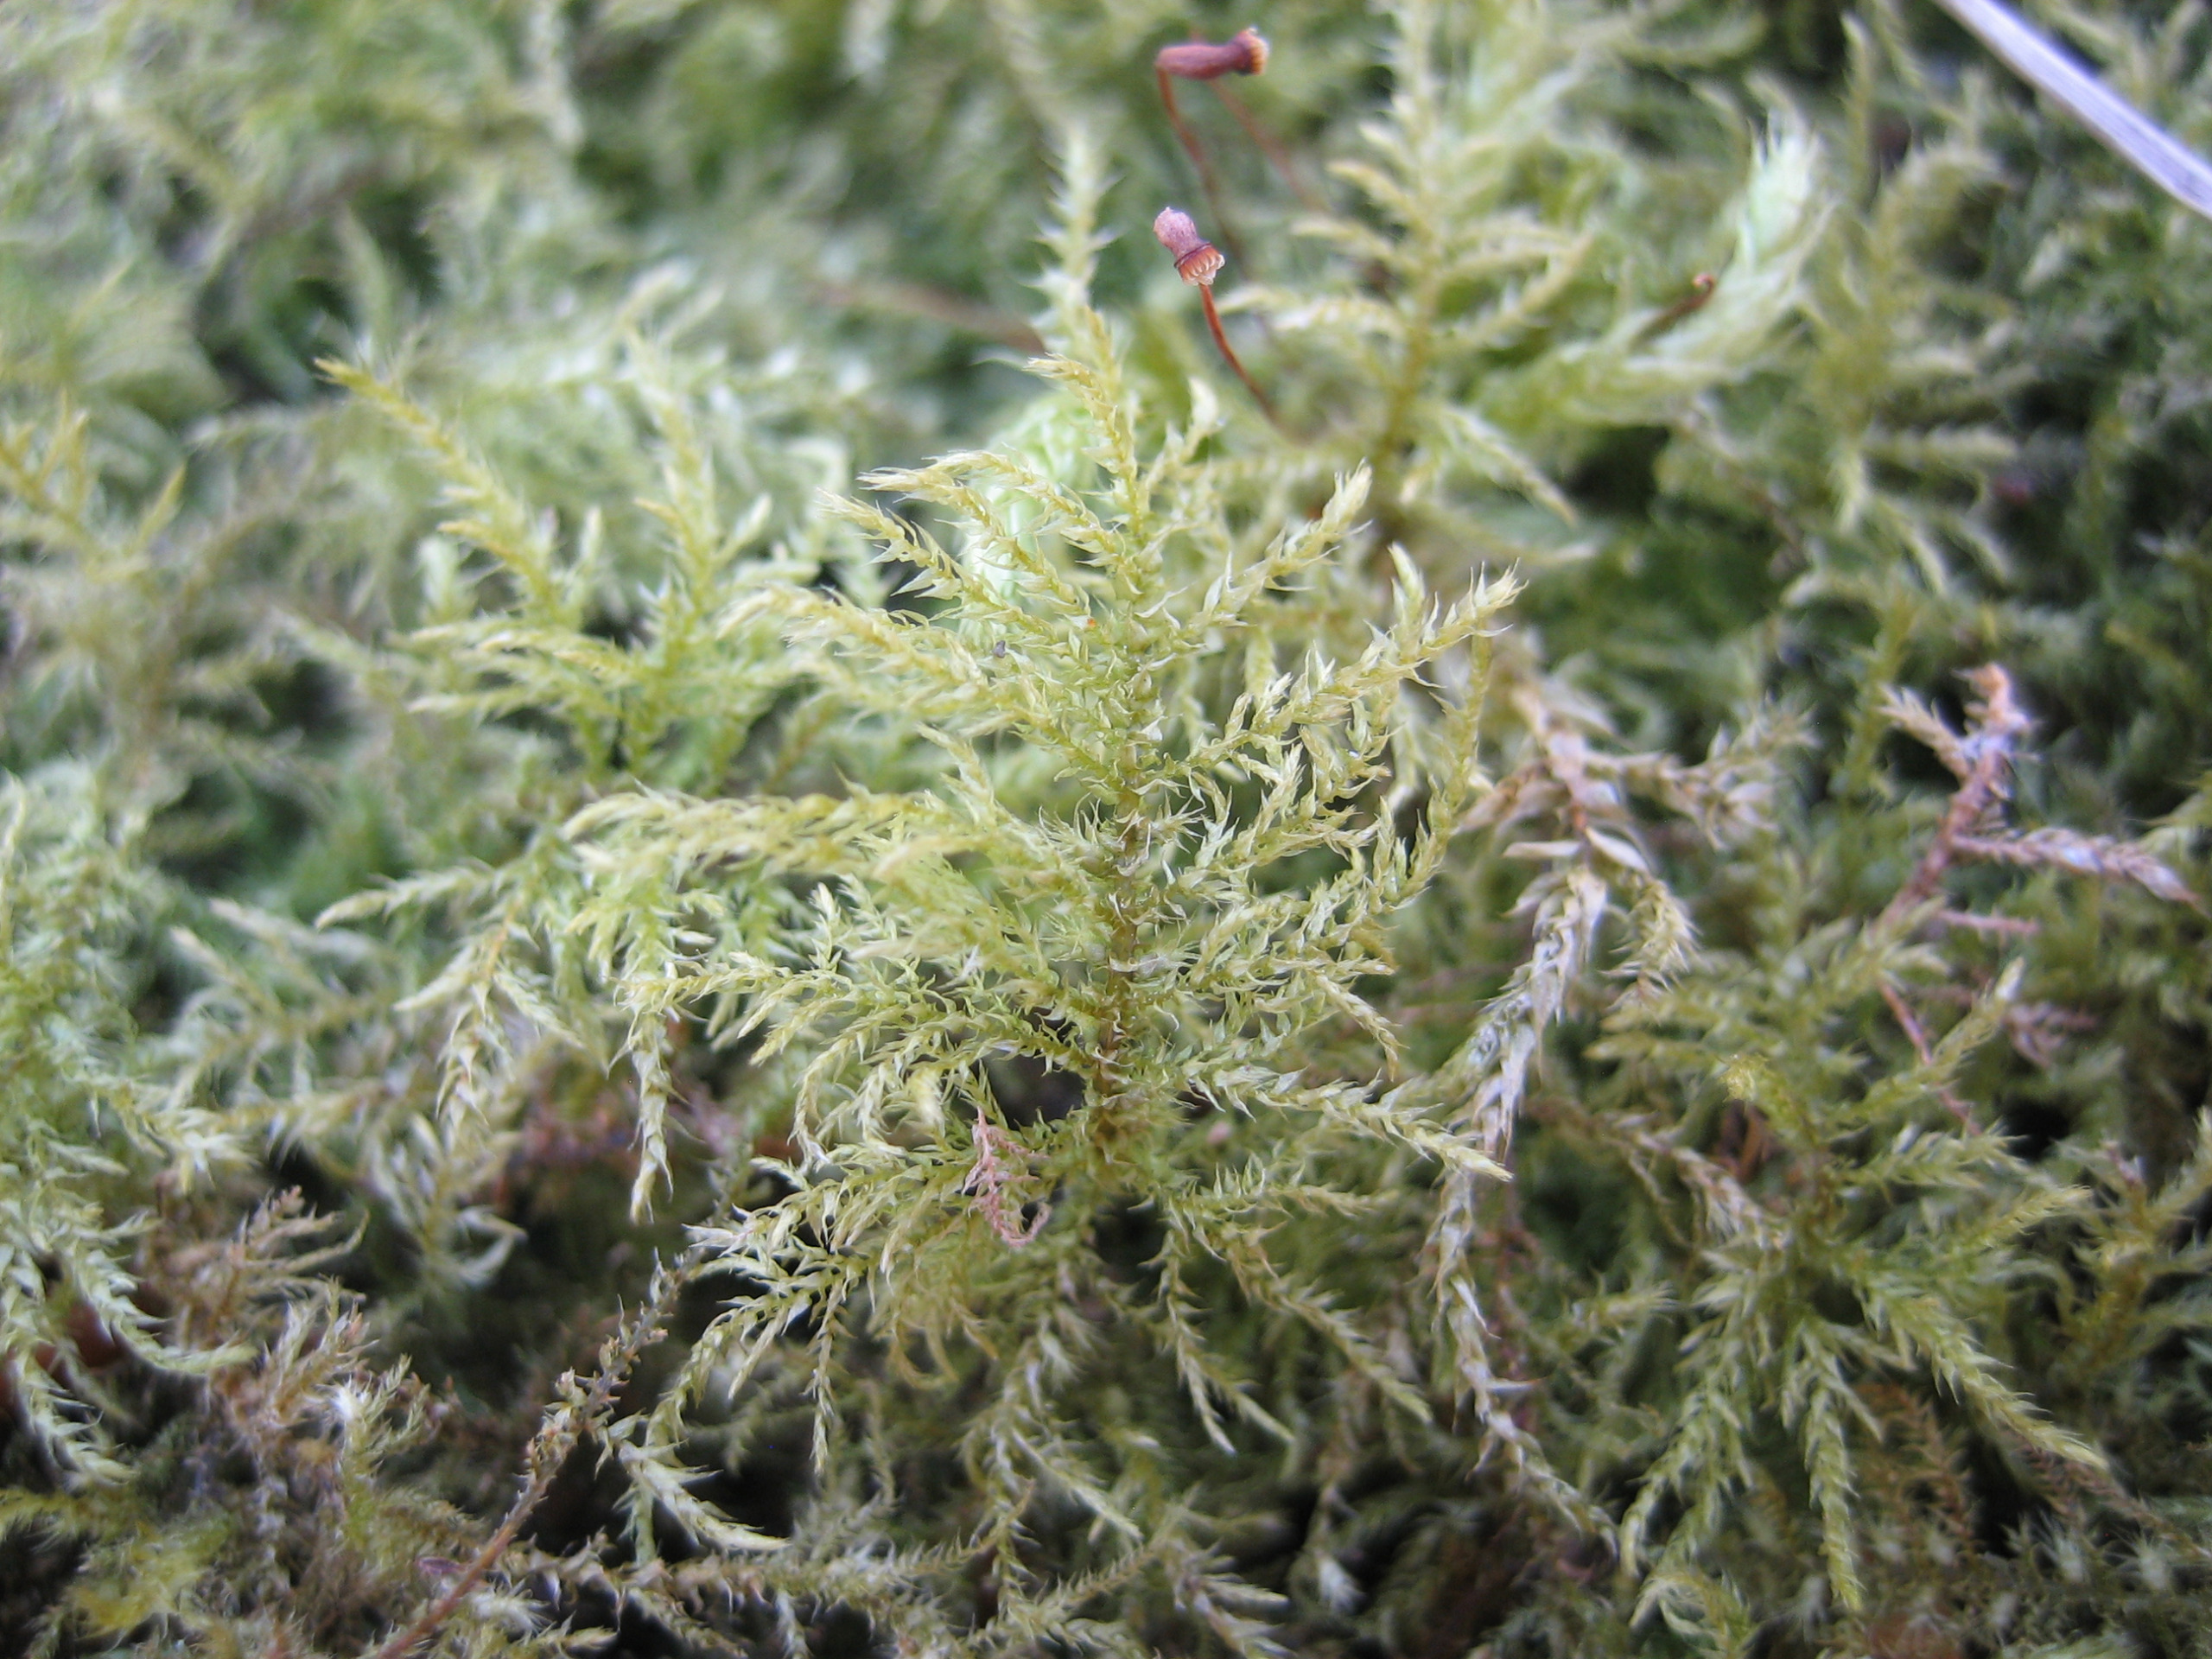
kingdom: Plantae
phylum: Bryophyta
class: Bryopsida
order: Hypnales
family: Brachytheciaceae
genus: Kindbergia
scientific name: Kindbergia praelonga
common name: Forskelligbladet vortetand
